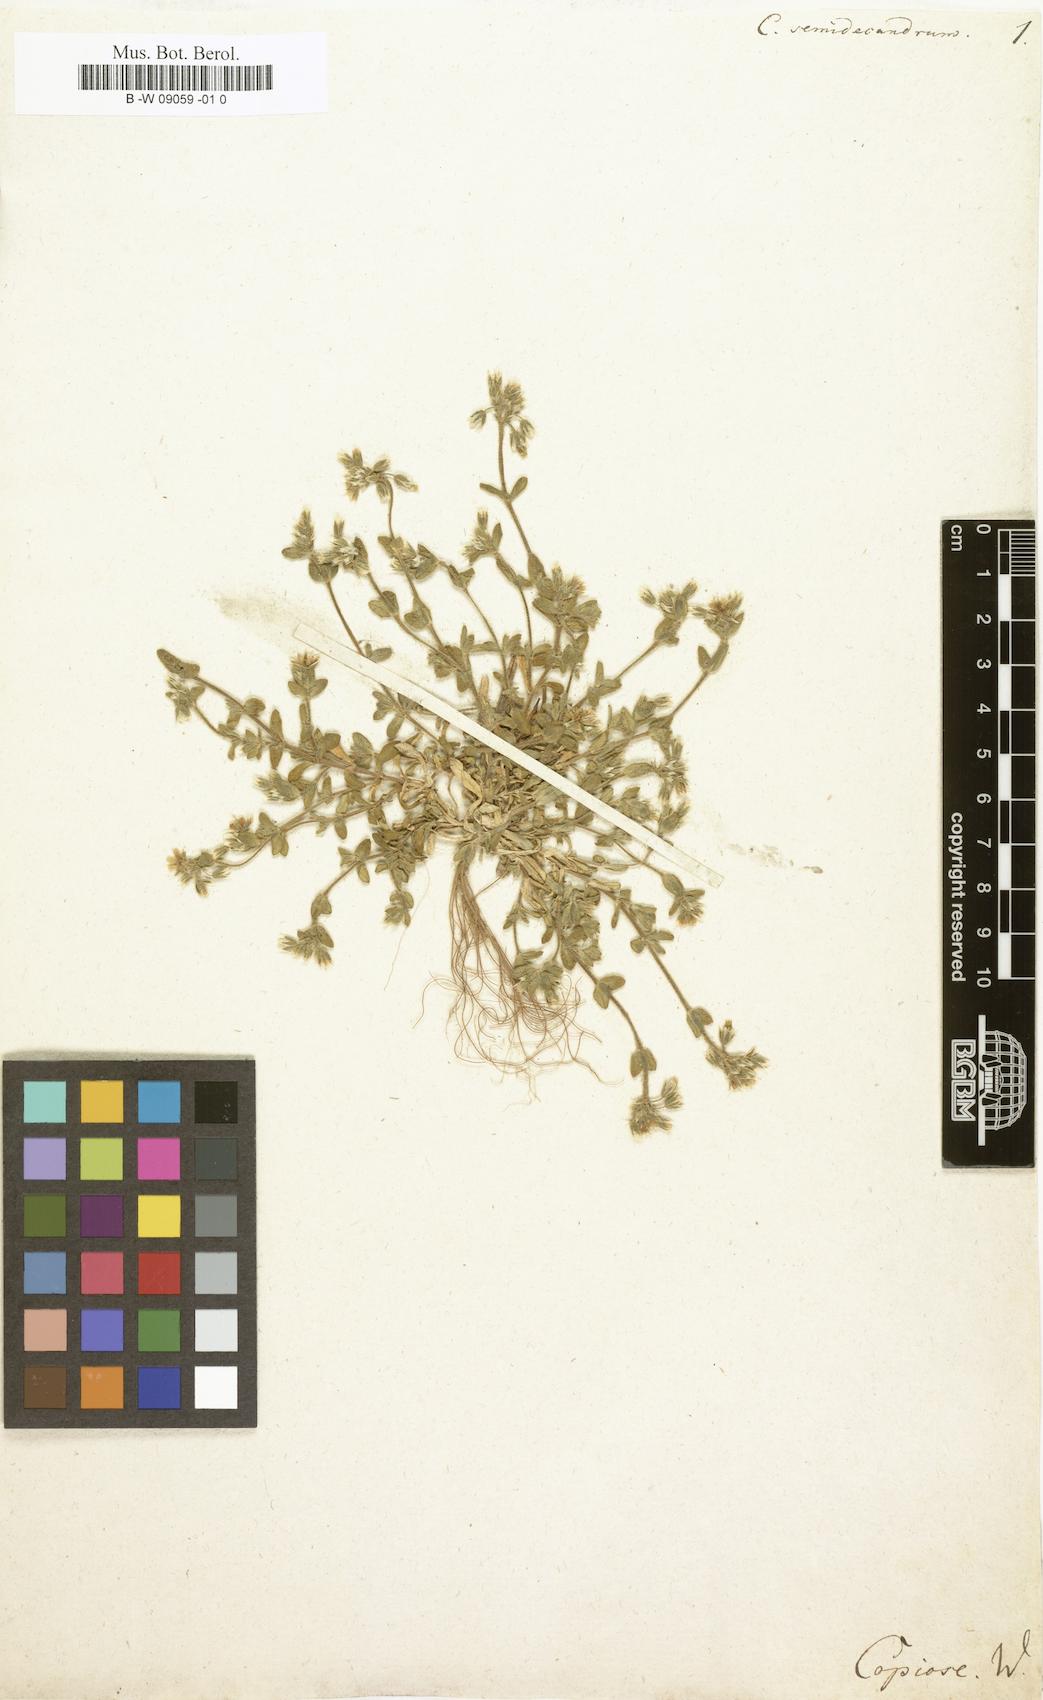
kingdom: Plantae
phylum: Tracheophyta
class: Magnoliopsida
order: Caryophyllales
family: Caryophyllaceae
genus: Cerastium
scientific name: Cerastium semidecandrum
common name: Little mouse-ear
